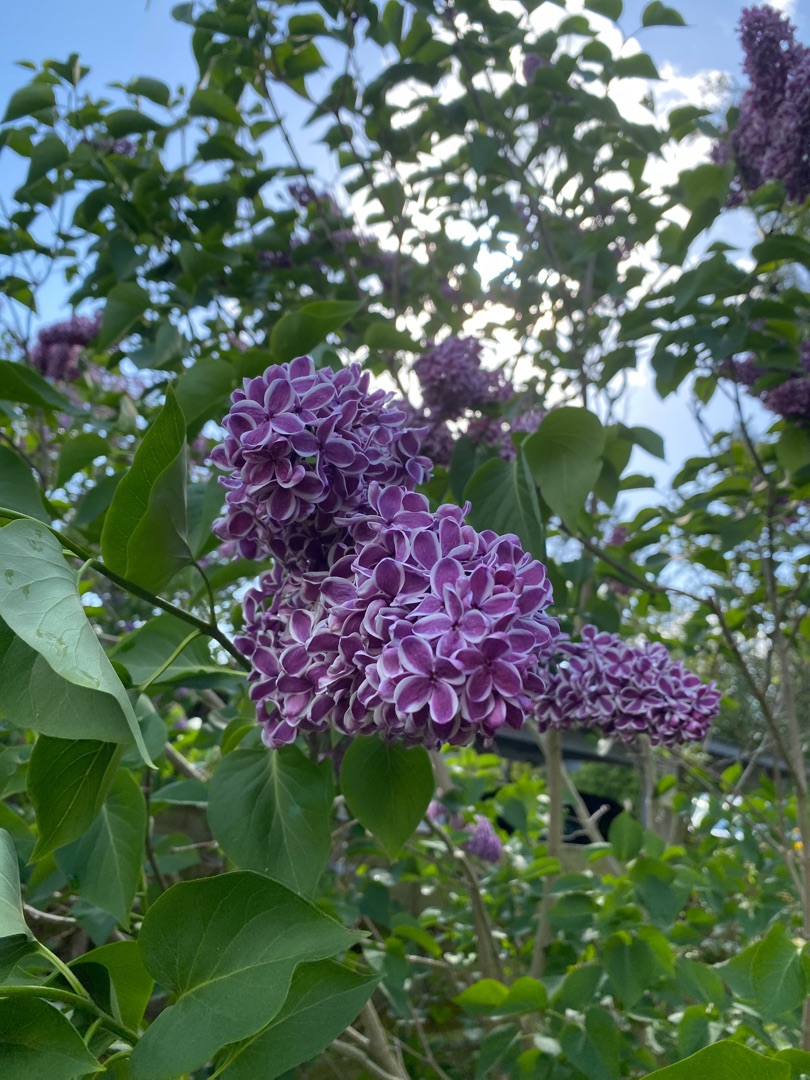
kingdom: Plantae
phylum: Tracheophyta
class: Magnoliopsida
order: Lamiales
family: Oleaceae
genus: Syringa
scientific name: Syringa vulgaris
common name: Syren
